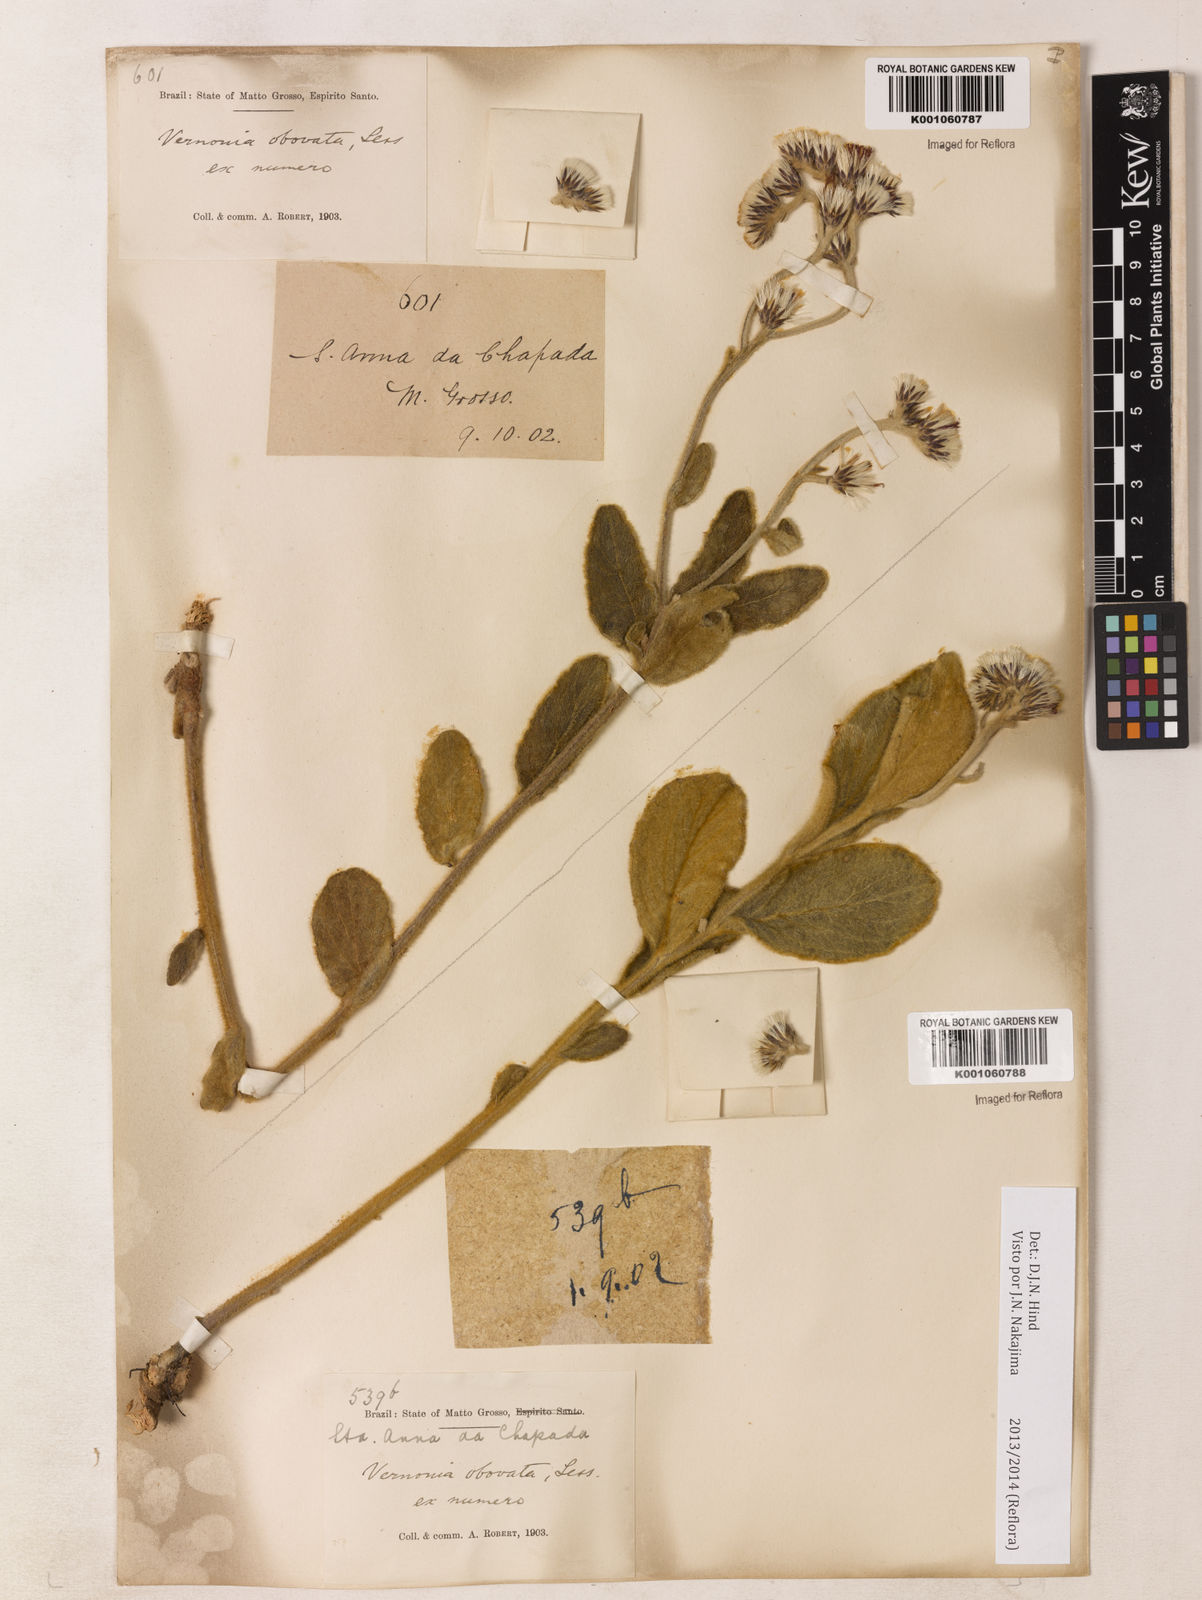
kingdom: Plantae
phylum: Tracheophyta
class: Magnoliopsida
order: Asterales
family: Asteraceae
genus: Chrysolaena
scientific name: Chrysolaena obovata
